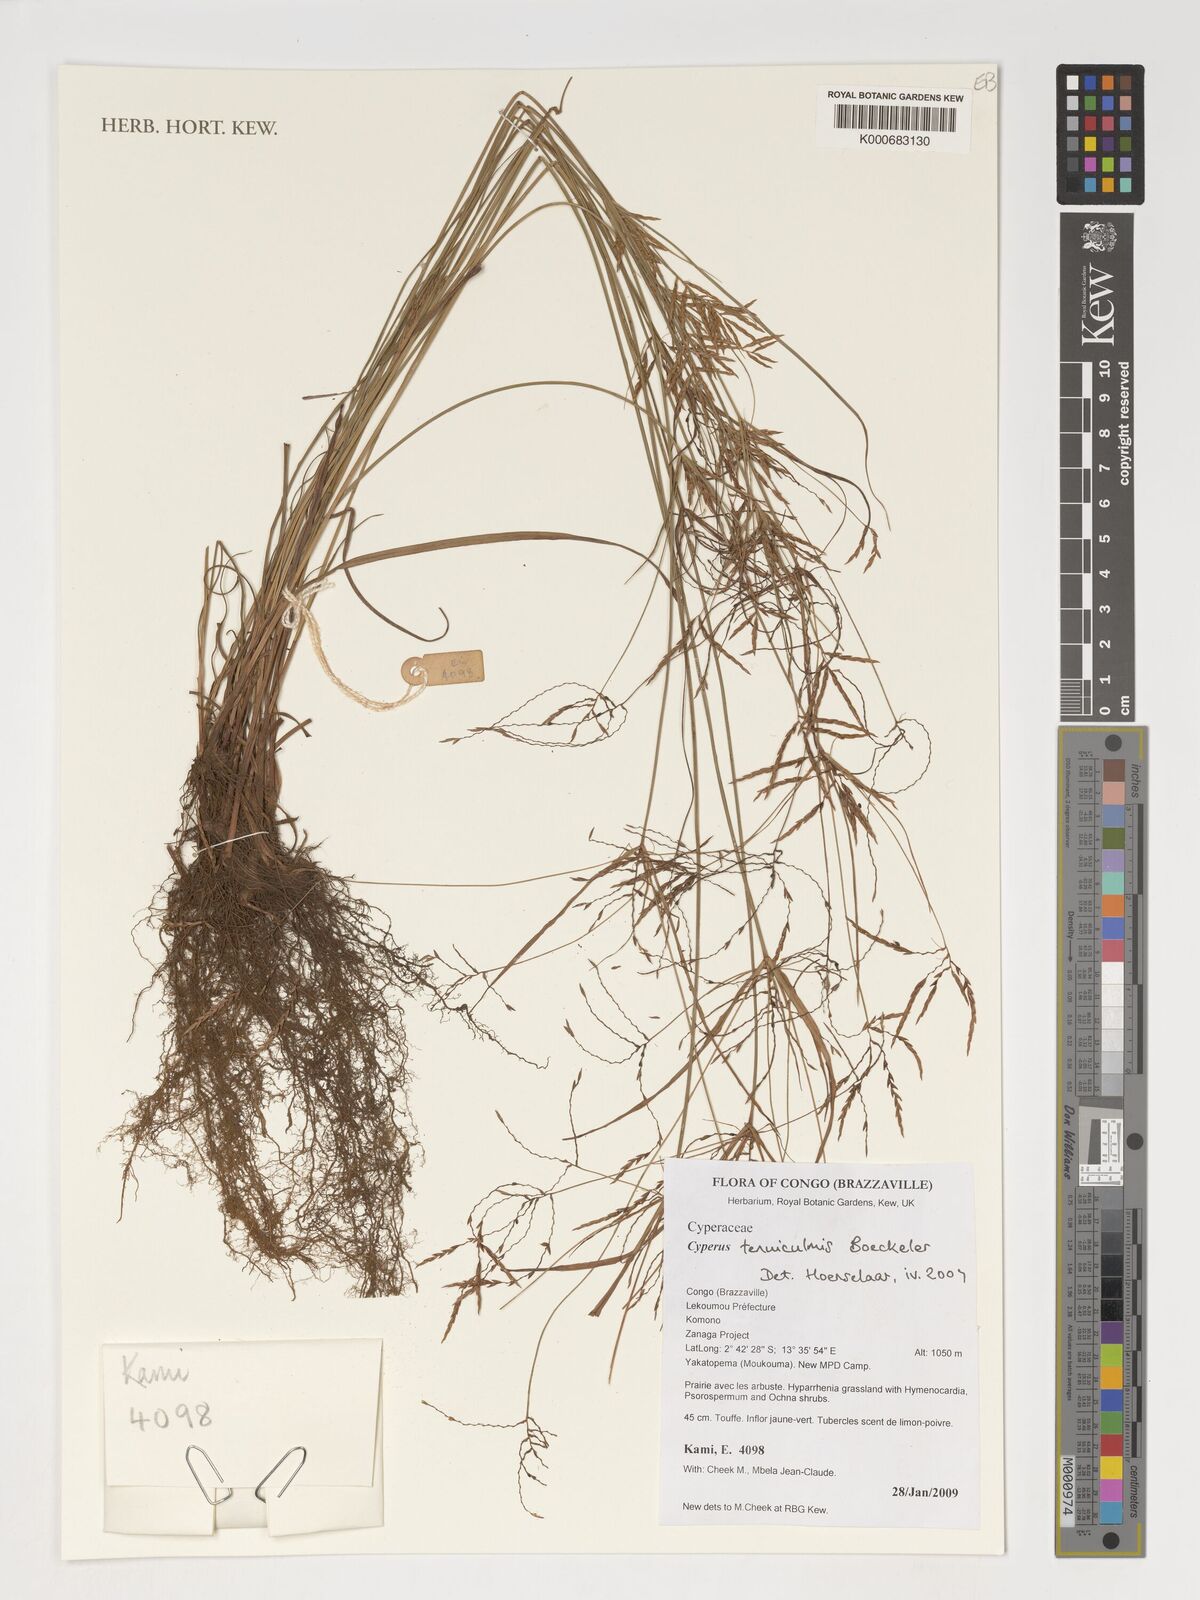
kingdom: Plantae
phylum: Tracheophyta
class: Liliopsida
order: Poales
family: Cyperaceae
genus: Cyperus
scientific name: Cyperus tenuiculmis
